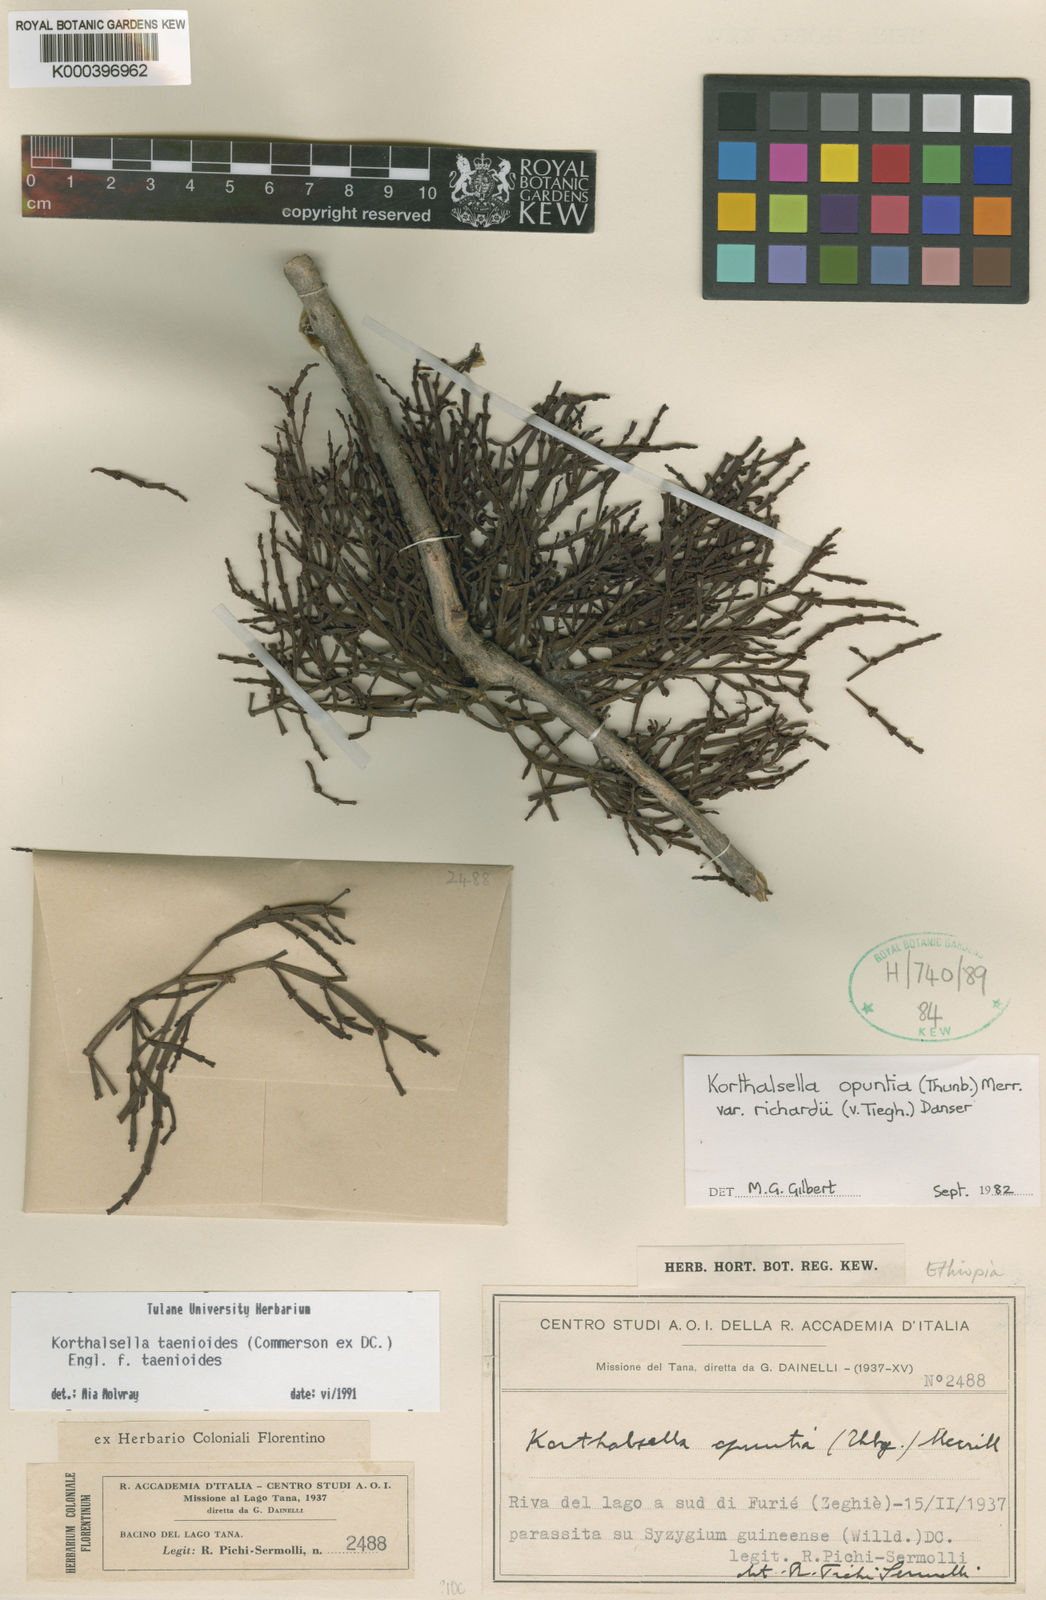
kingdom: Plantae
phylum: Tracheophyta
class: Magnoliopsida
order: Santalales
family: Viscaceae
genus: Korthalsella
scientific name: Korthalsella japonica
